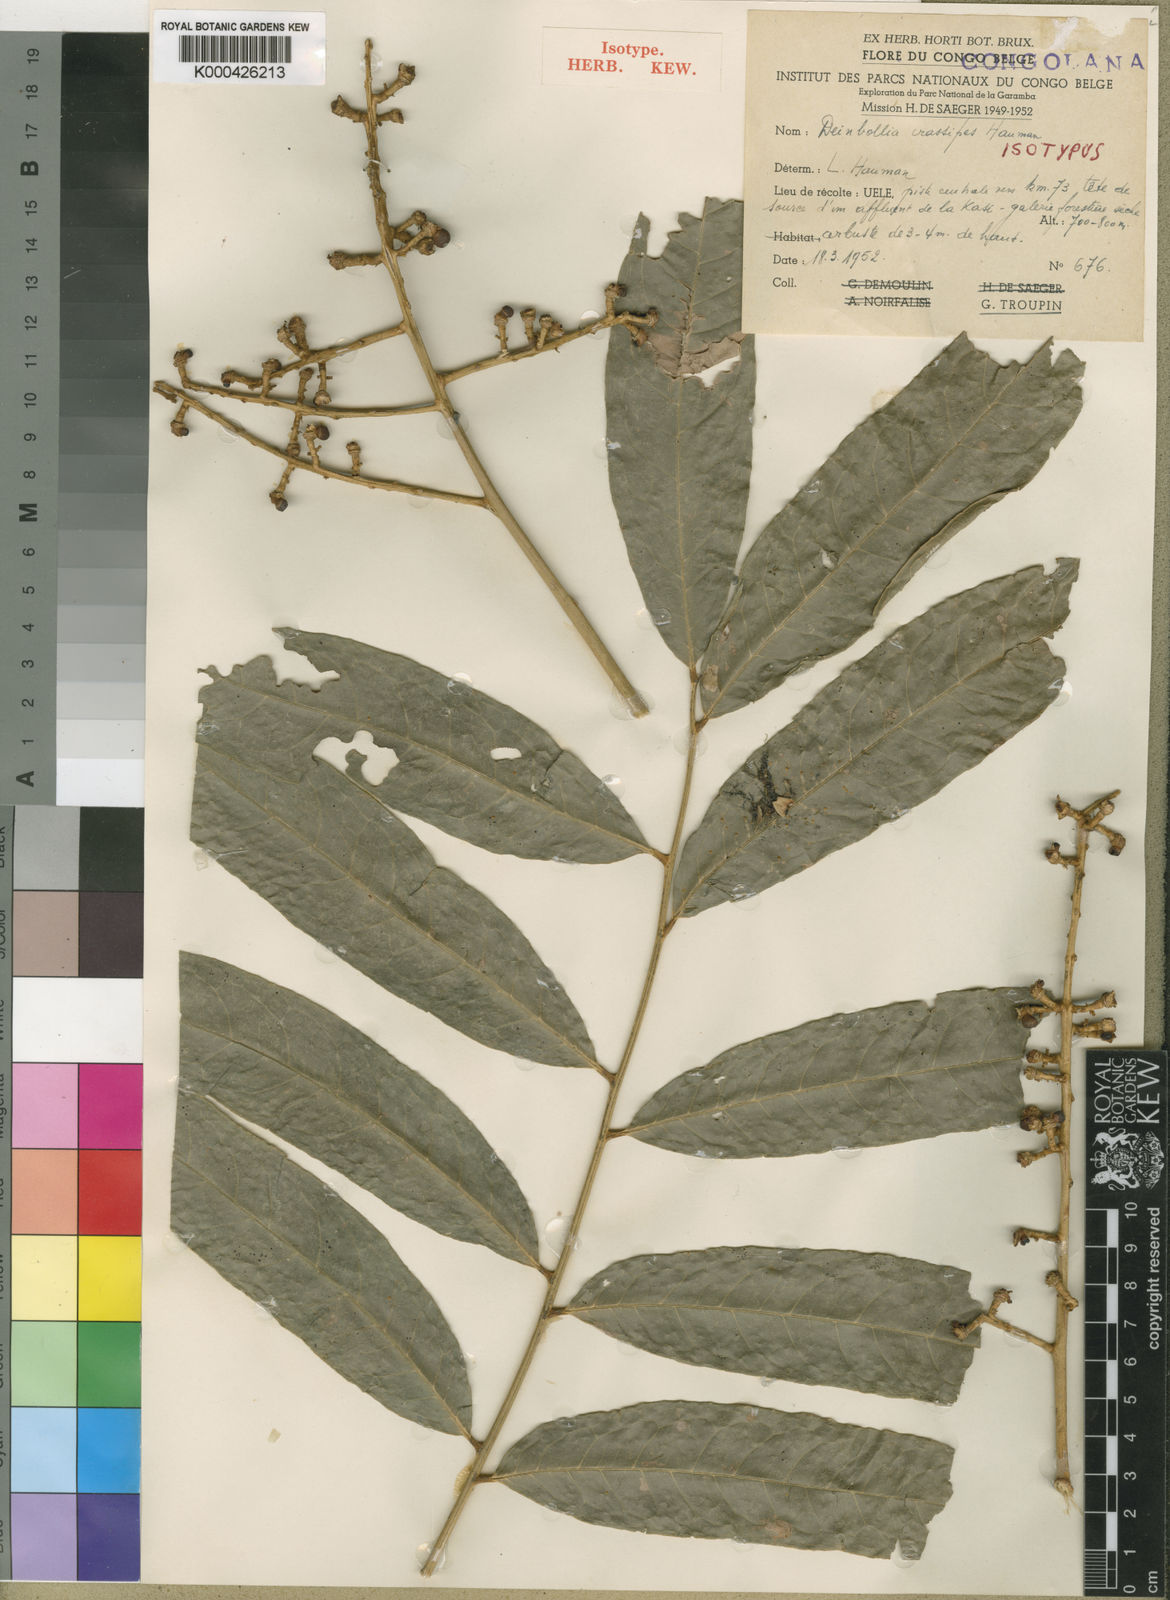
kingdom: Plantae
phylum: Tracheophyta
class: Magnoliopsida
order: Sapindales
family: Sapindaceae
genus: Deinbollia
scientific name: Deinbollia crassipes
